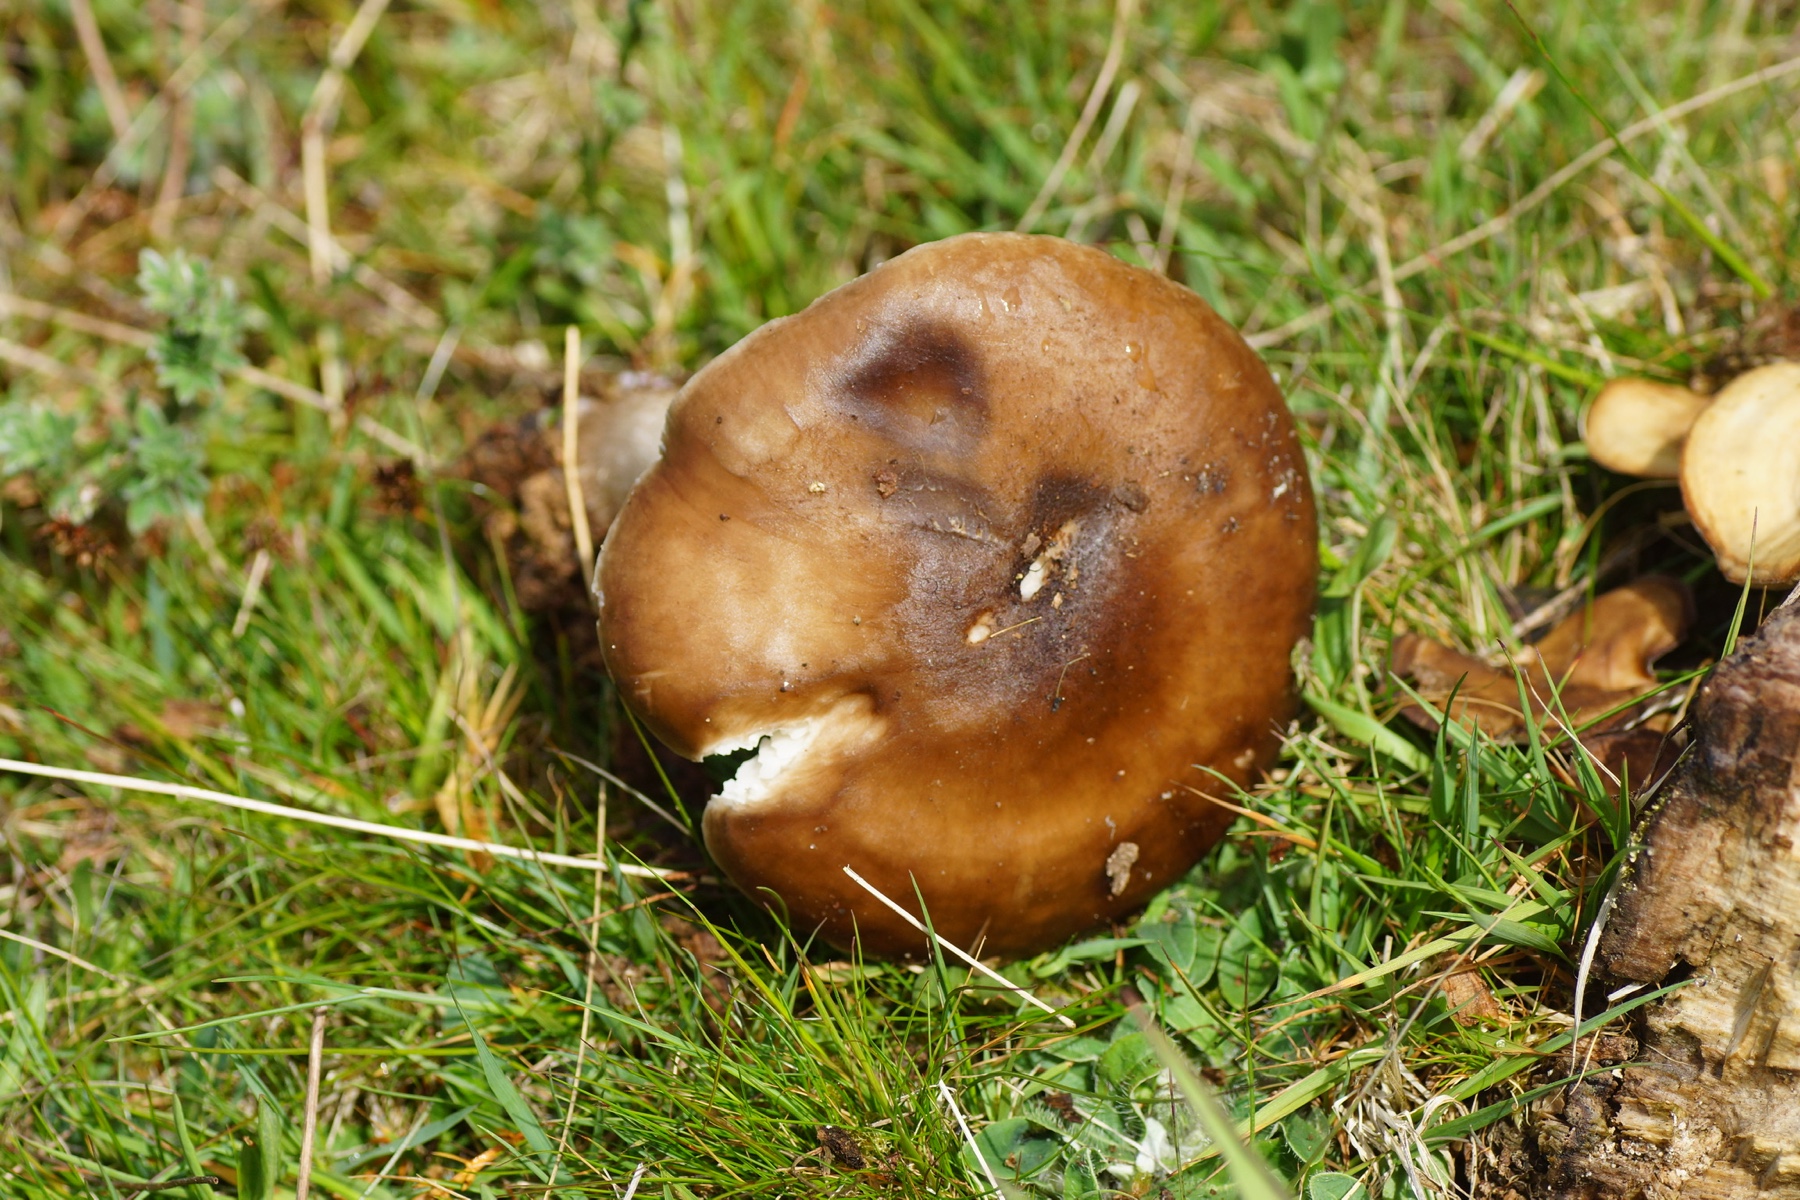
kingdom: Fungi
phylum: Basidiomycota
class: Agaricomycetes
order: Agaricales
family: Pluteaceae
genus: Pluteus
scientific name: Pluteus cervinus
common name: sodfarvet skærmhat
